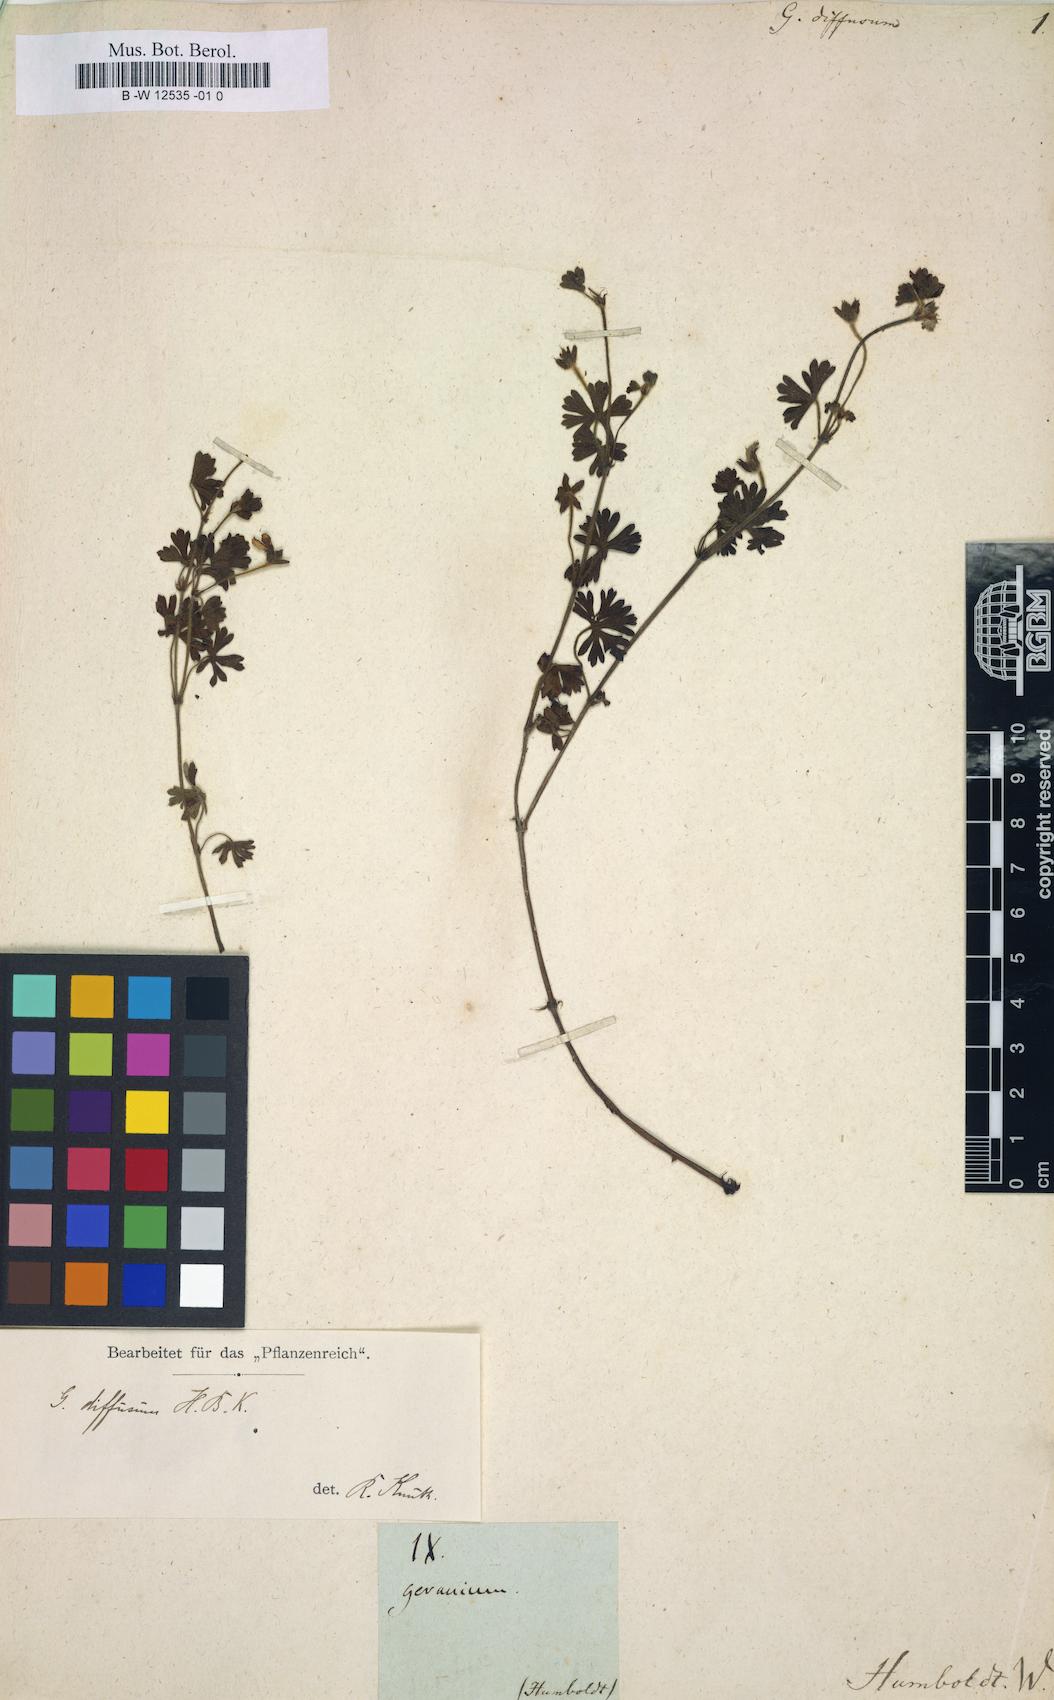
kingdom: Plantae
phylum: Tracheophyta
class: Magnoliopsida
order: Geraniales
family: Geraniaceae
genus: Geranium
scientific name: Geranium diffusum
